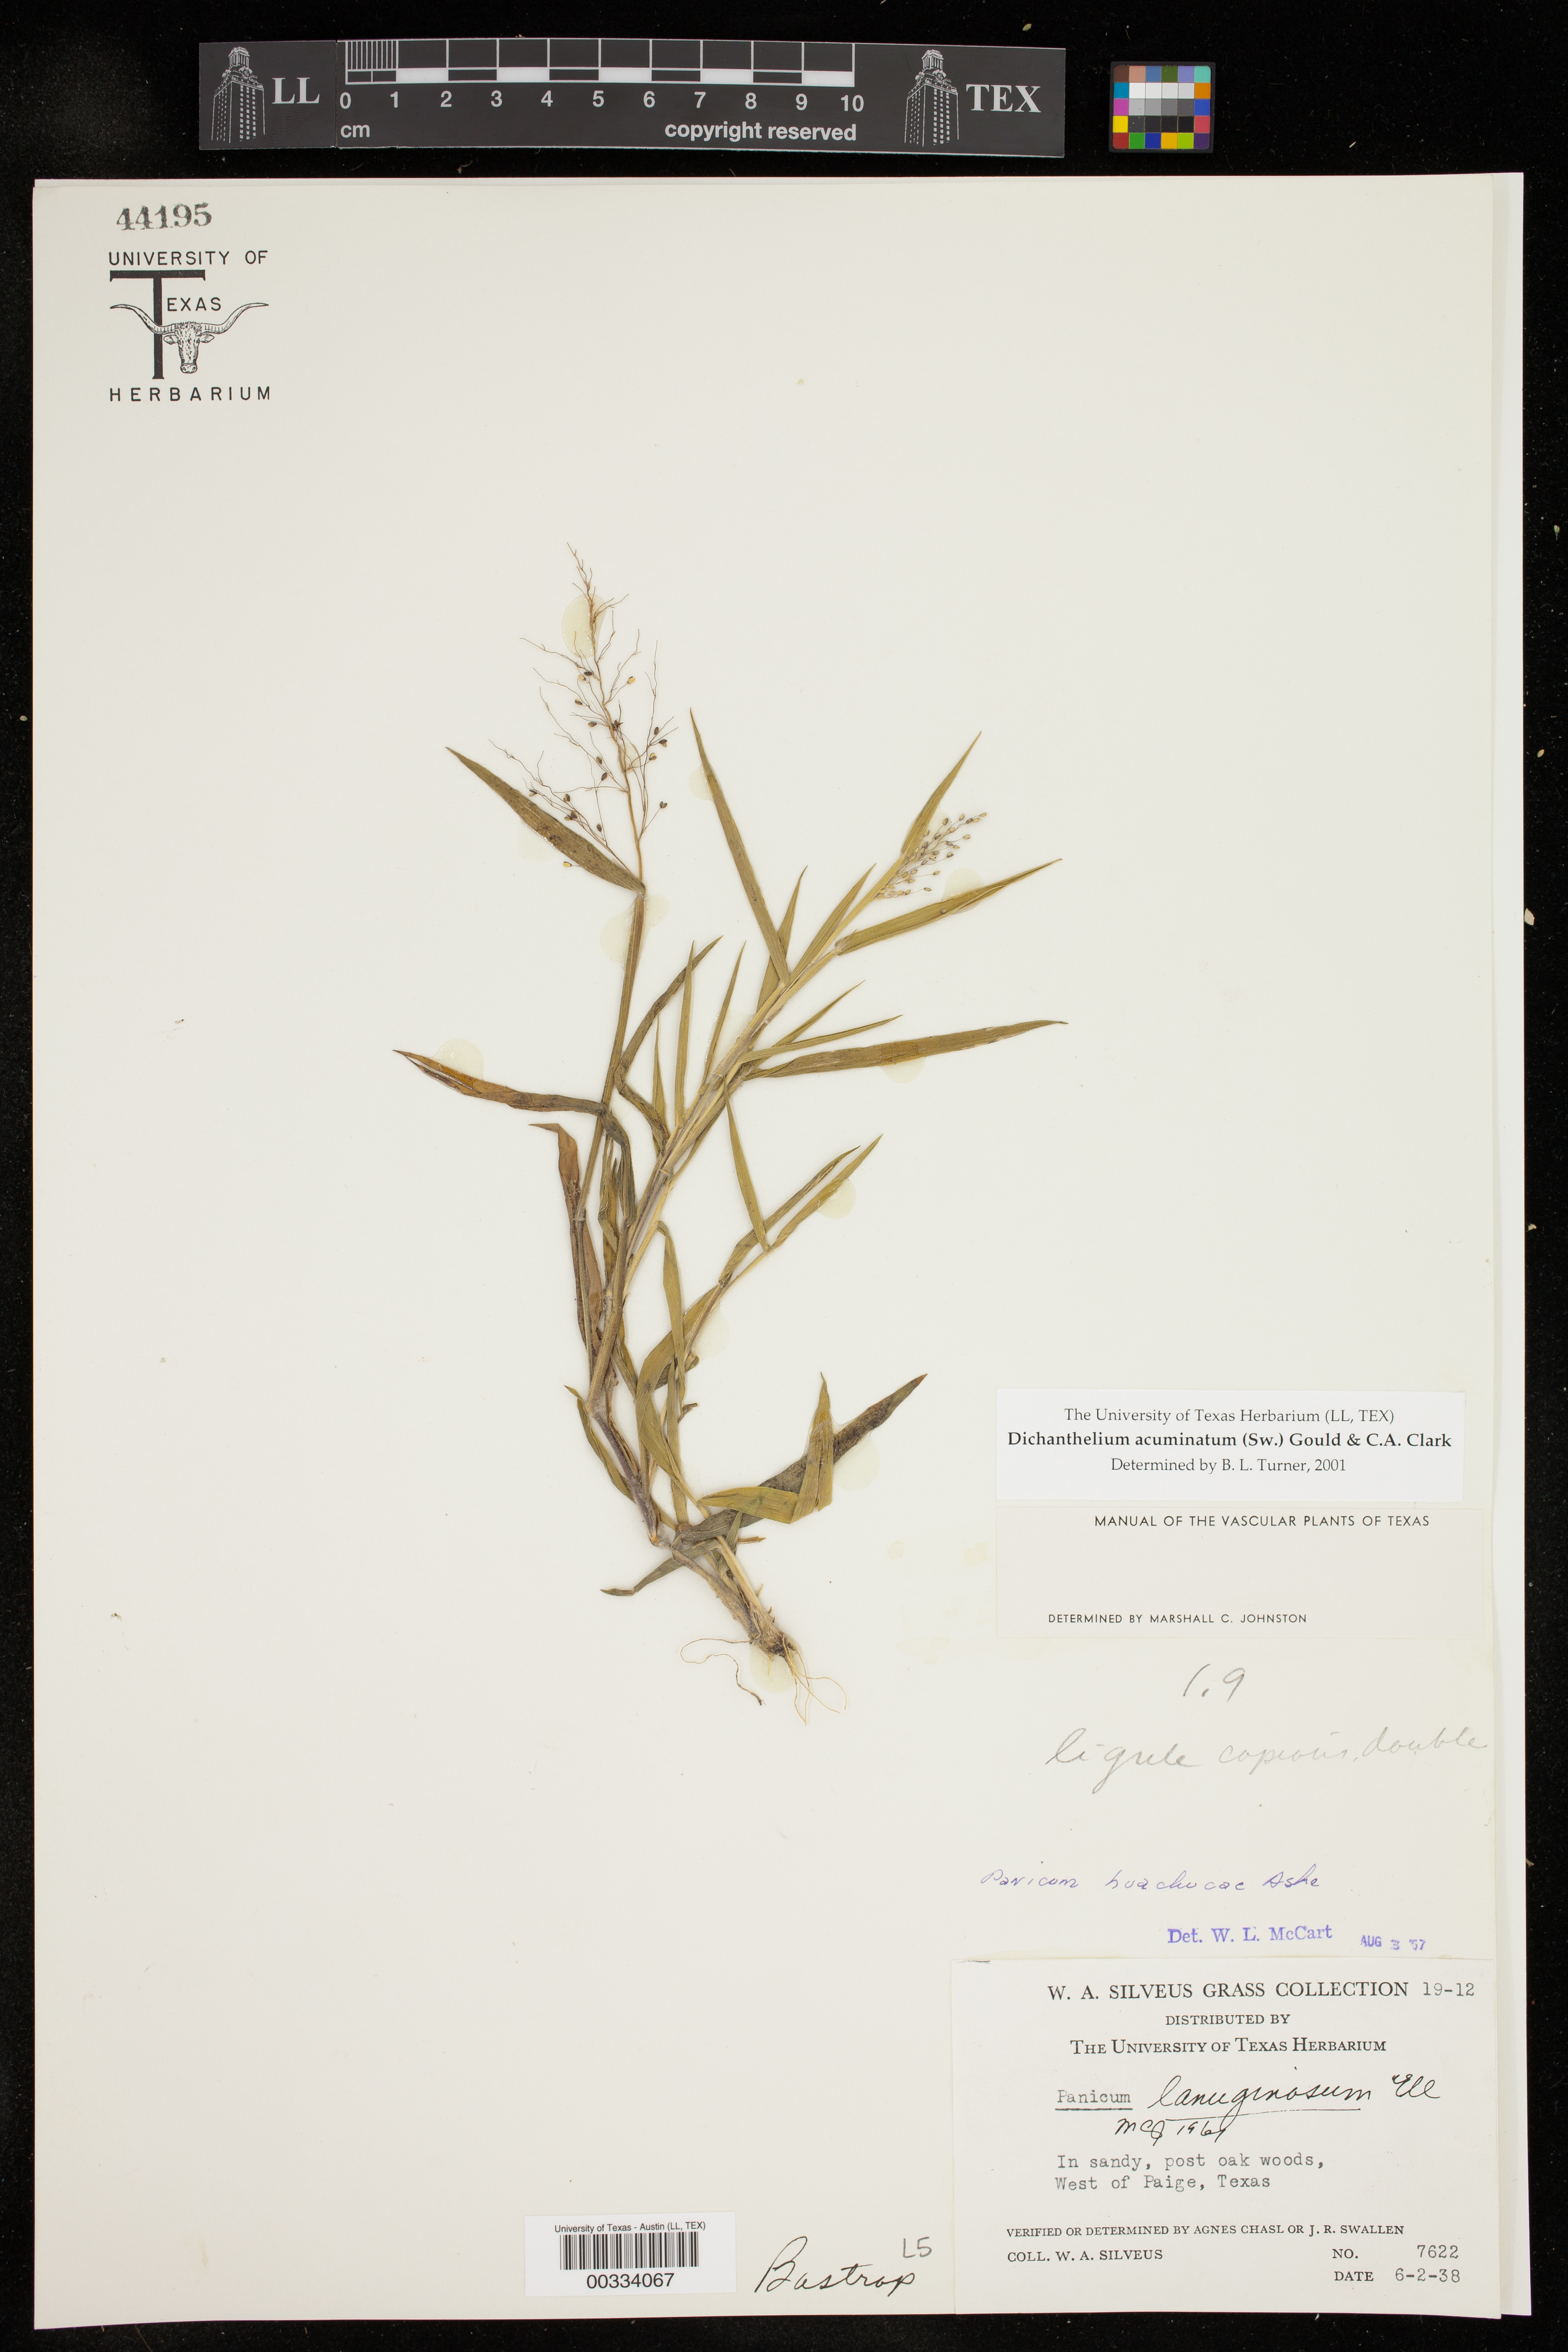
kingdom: Plantae
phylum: Tracheophyta
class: Liliopsida
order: Poales
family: Poaceae
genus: Dichanthelium
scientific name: Dichanthelium acuminatum
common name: Hairy panic grass
